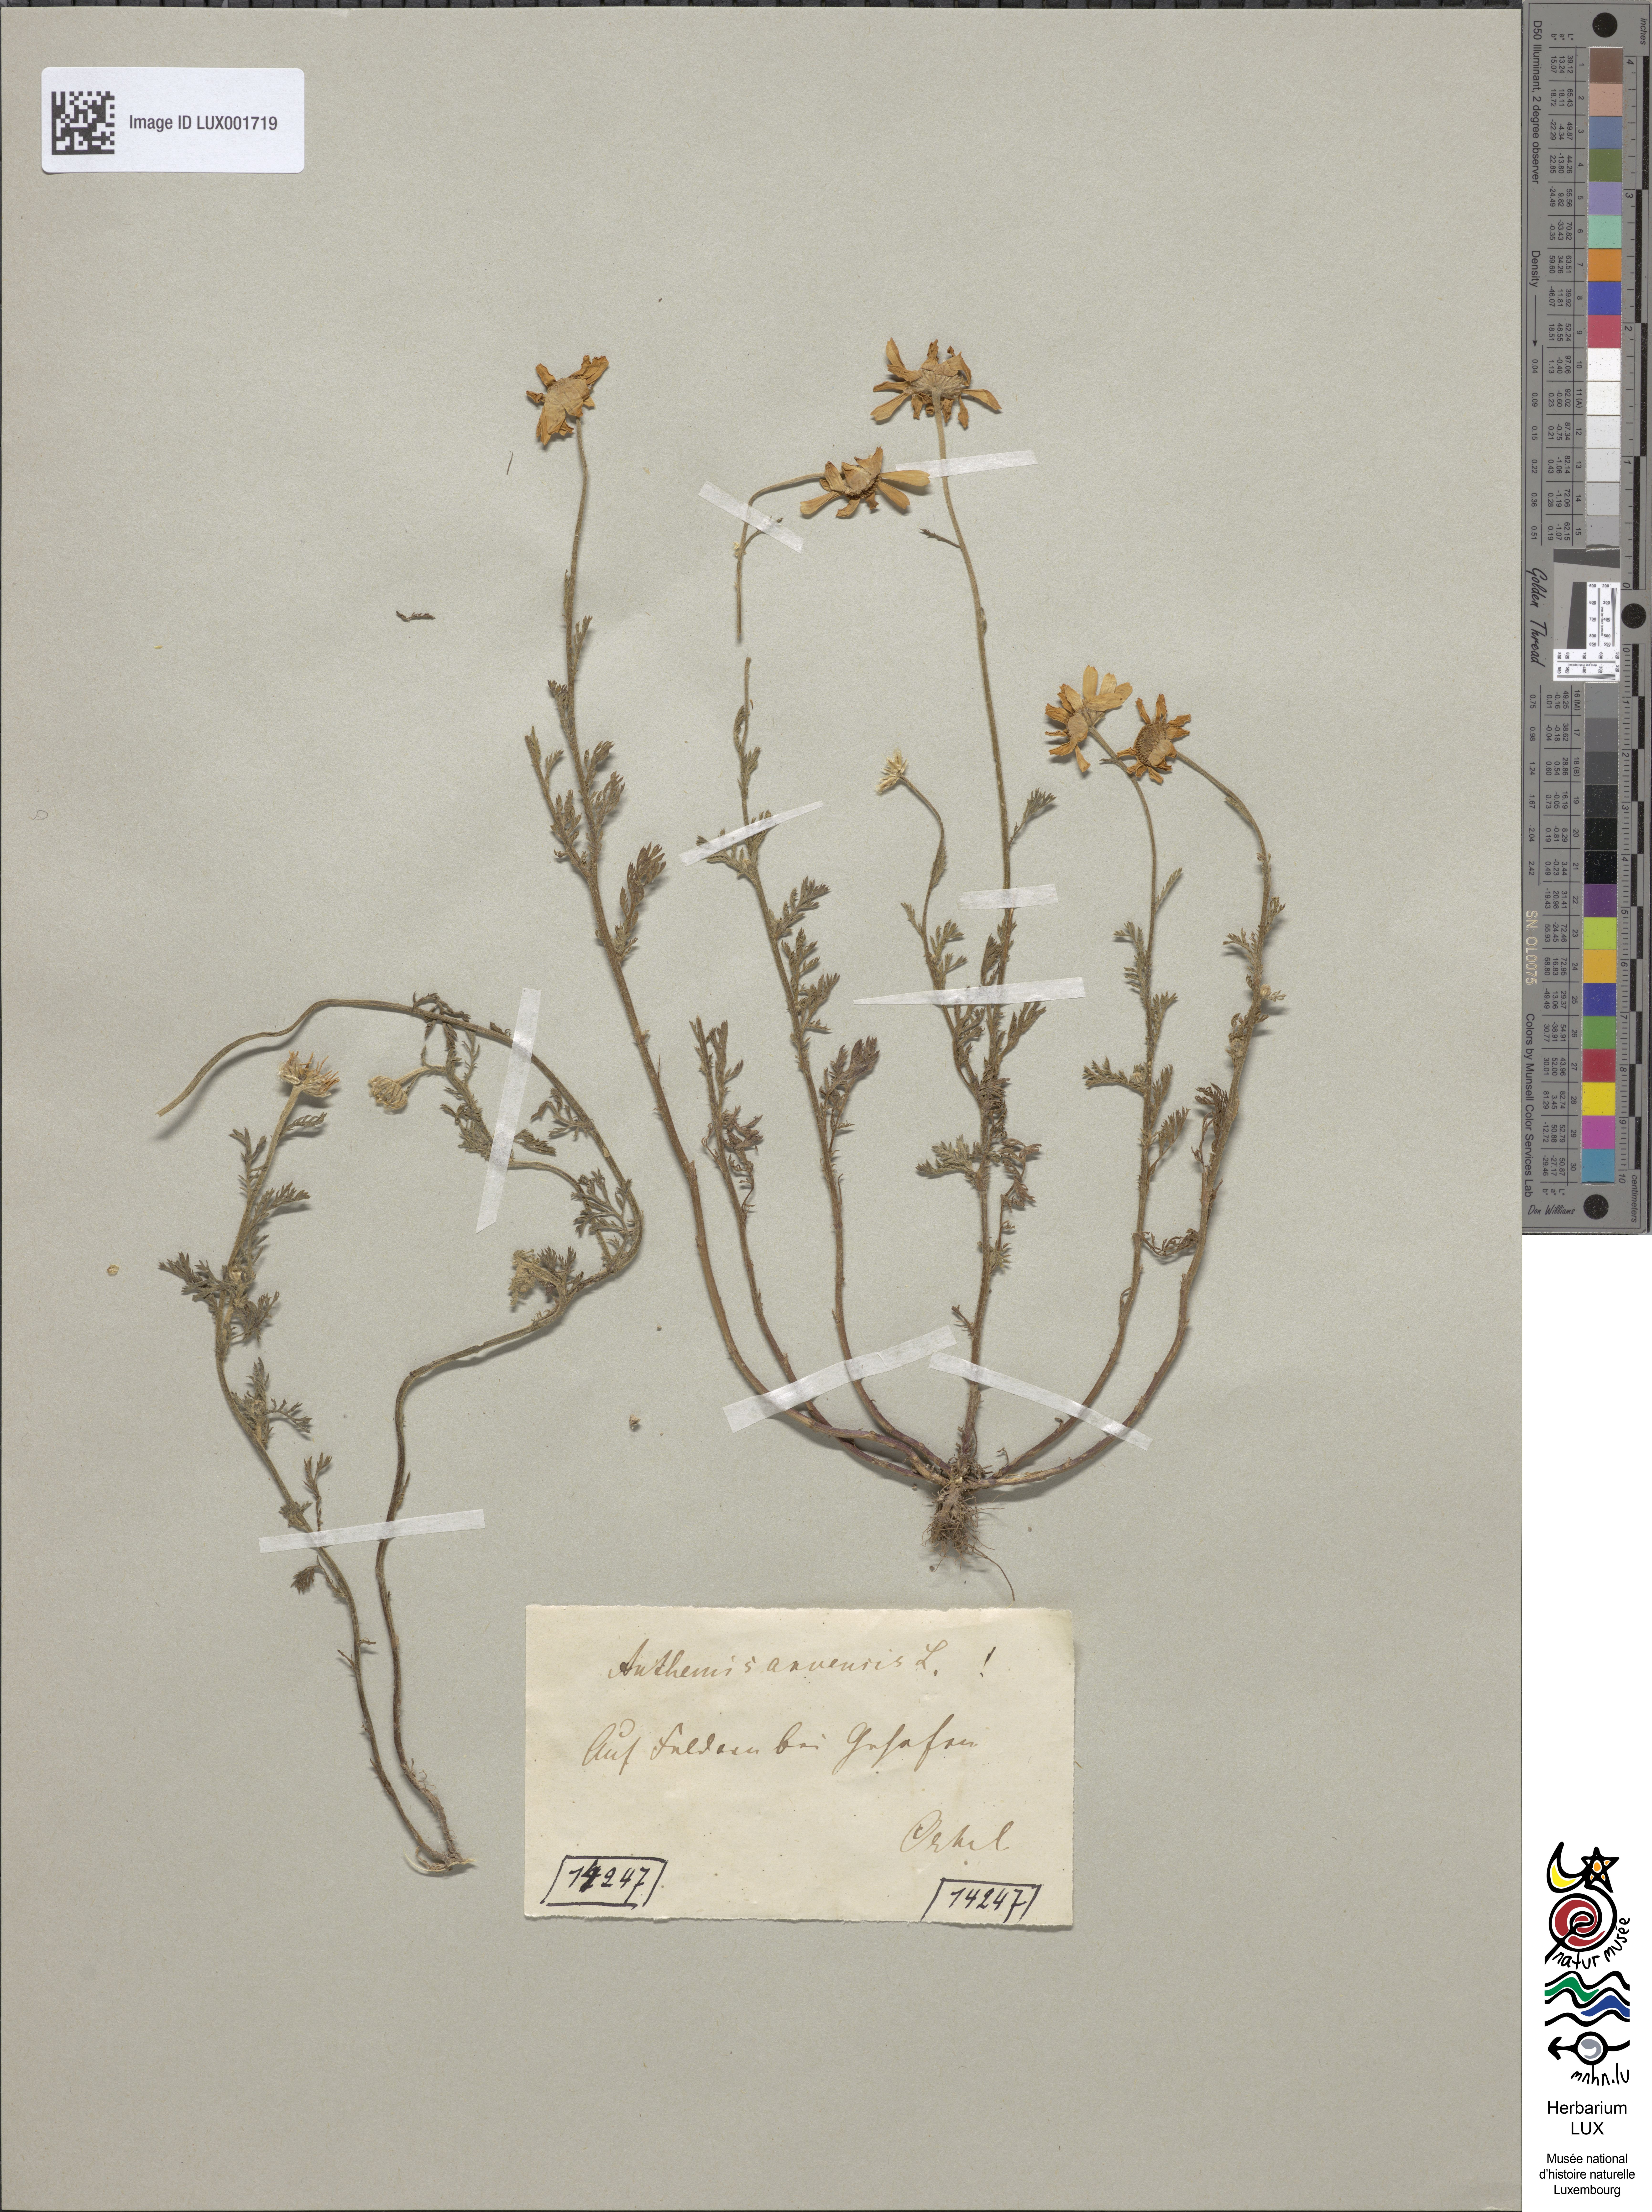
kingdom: Plantae
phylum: Tracheophyta
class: Magnoliopsida
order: Asterales
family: Asteraceae
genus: Anthemis
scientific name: Anthemis arvensis
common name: Corn chamomile
